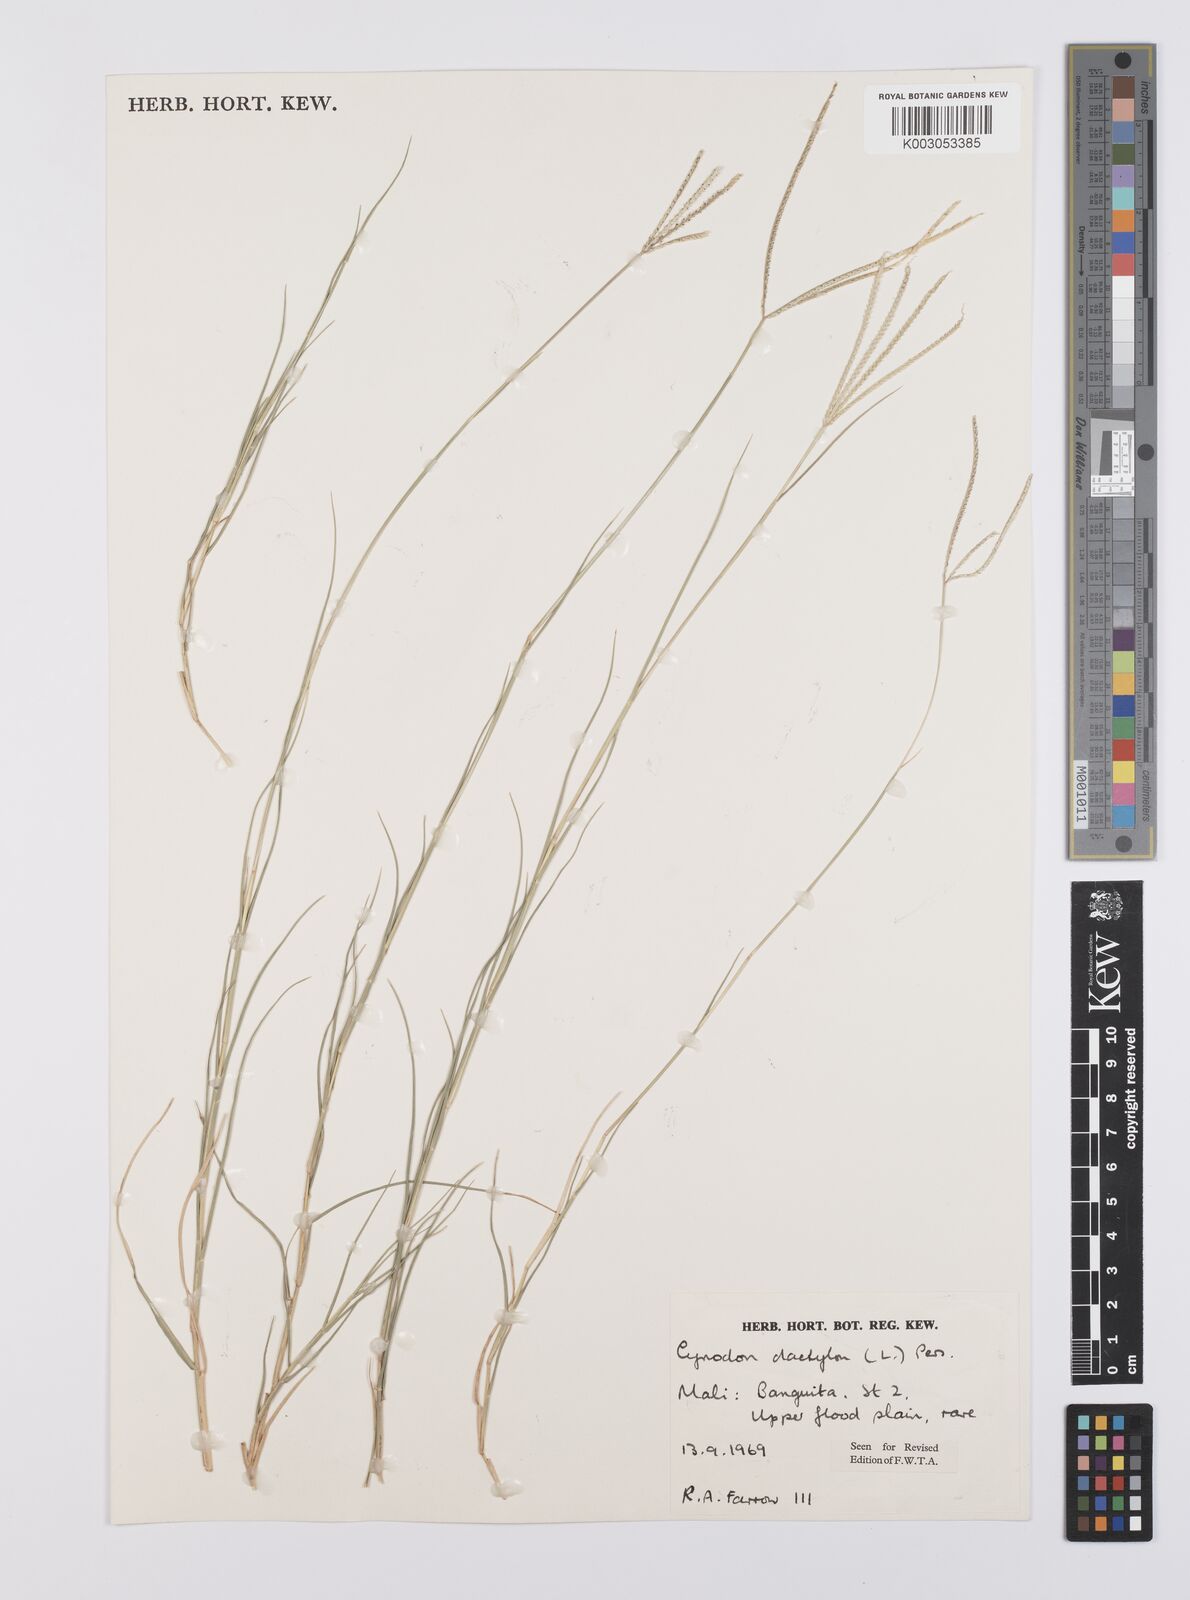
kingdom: Plantae
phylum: Tracheophyta
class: Liliopsida
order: Poales
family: Poaceae
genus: Cynodon
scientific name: Cynodon dactylon
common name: Bermuda grass
